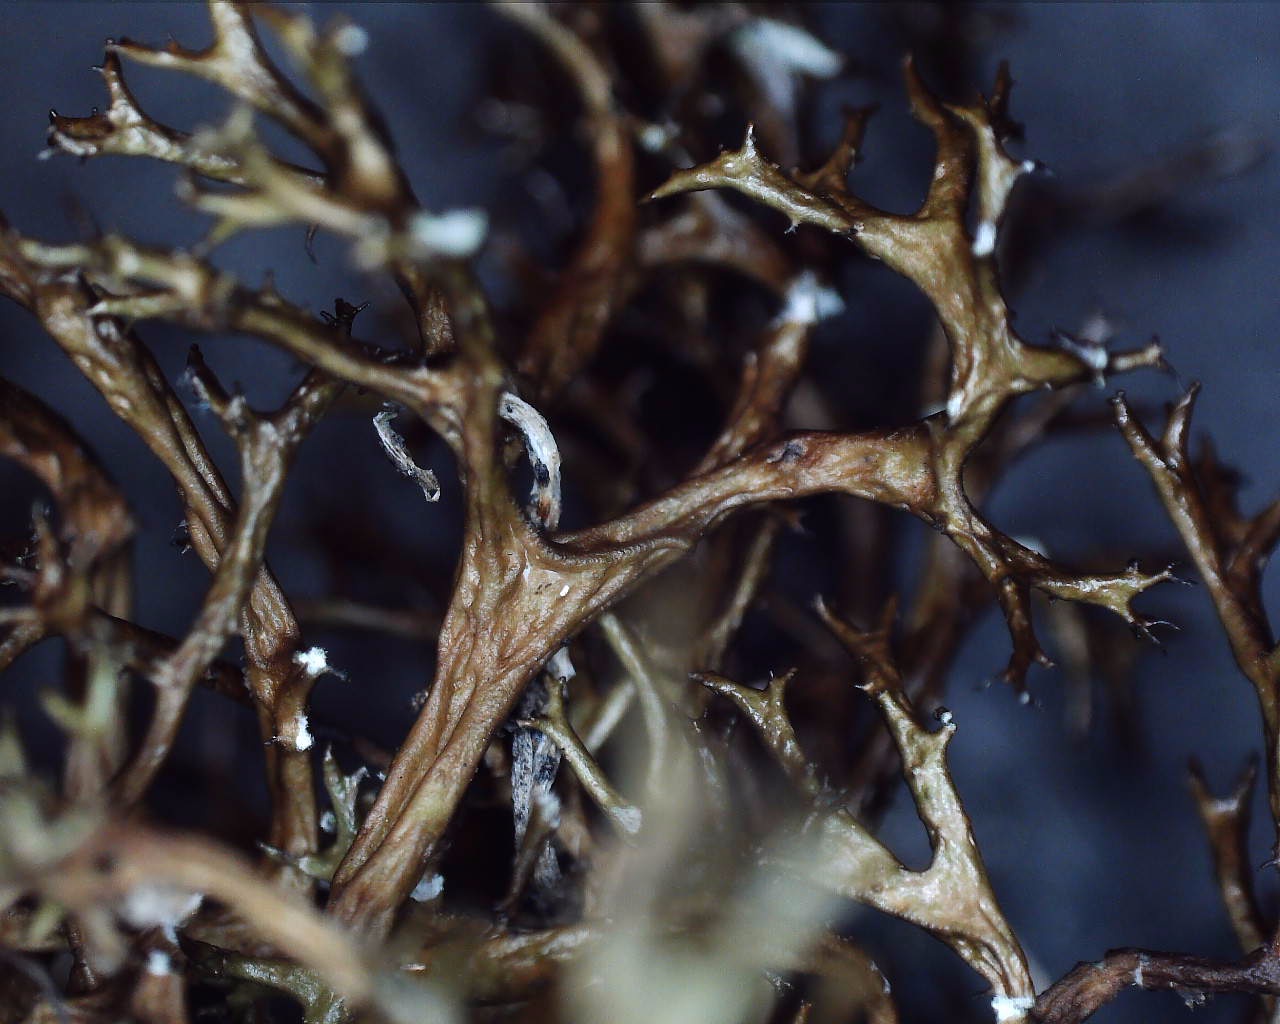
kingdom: Fungi
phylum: Ascomycota
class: Lecanoromycetes
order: Lecanorales
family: Parmeliaceae
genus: Cetraria
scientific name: Cetraria aculeata
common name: grubet tjørnelav
